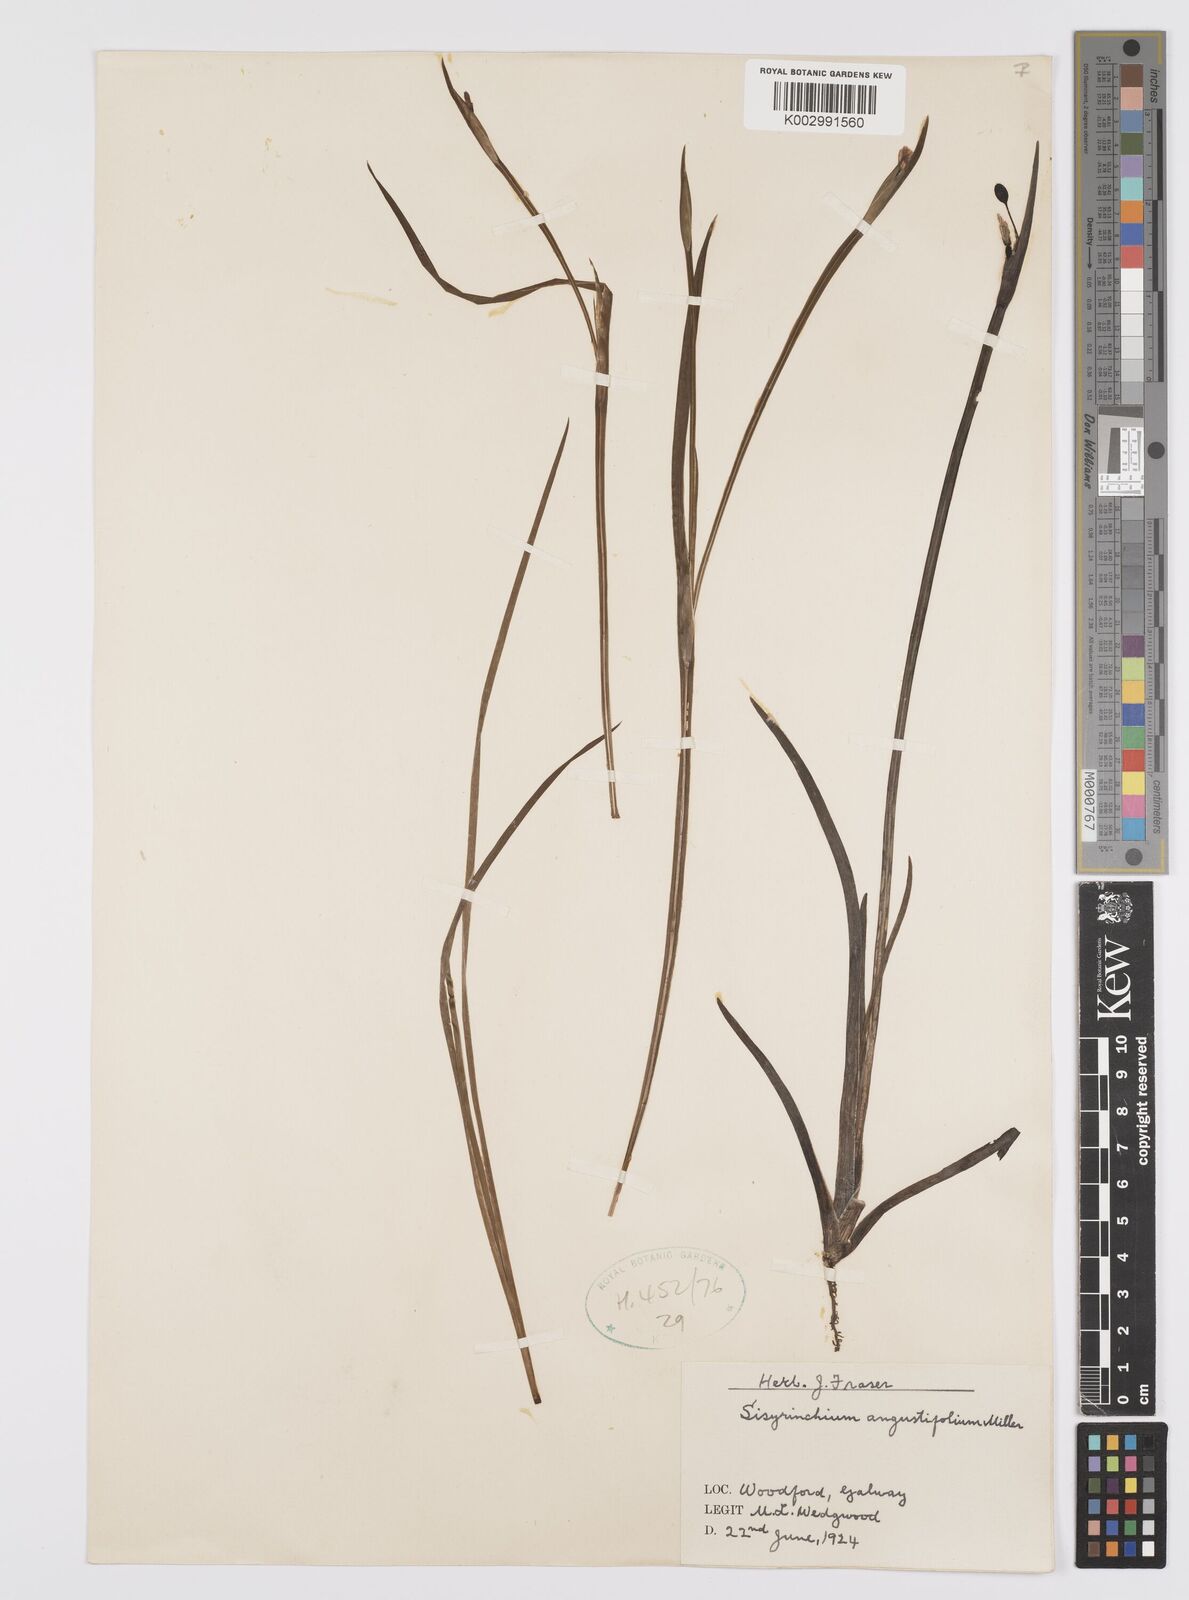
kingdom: Plantae
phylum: Tracheophyta
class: Liliopsida
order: Asparagales
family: Iridaceae
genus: Sisyrinchium
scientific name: Sisyrinchium angustifolium
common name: Narrow-leaf blue-eyed-grass
